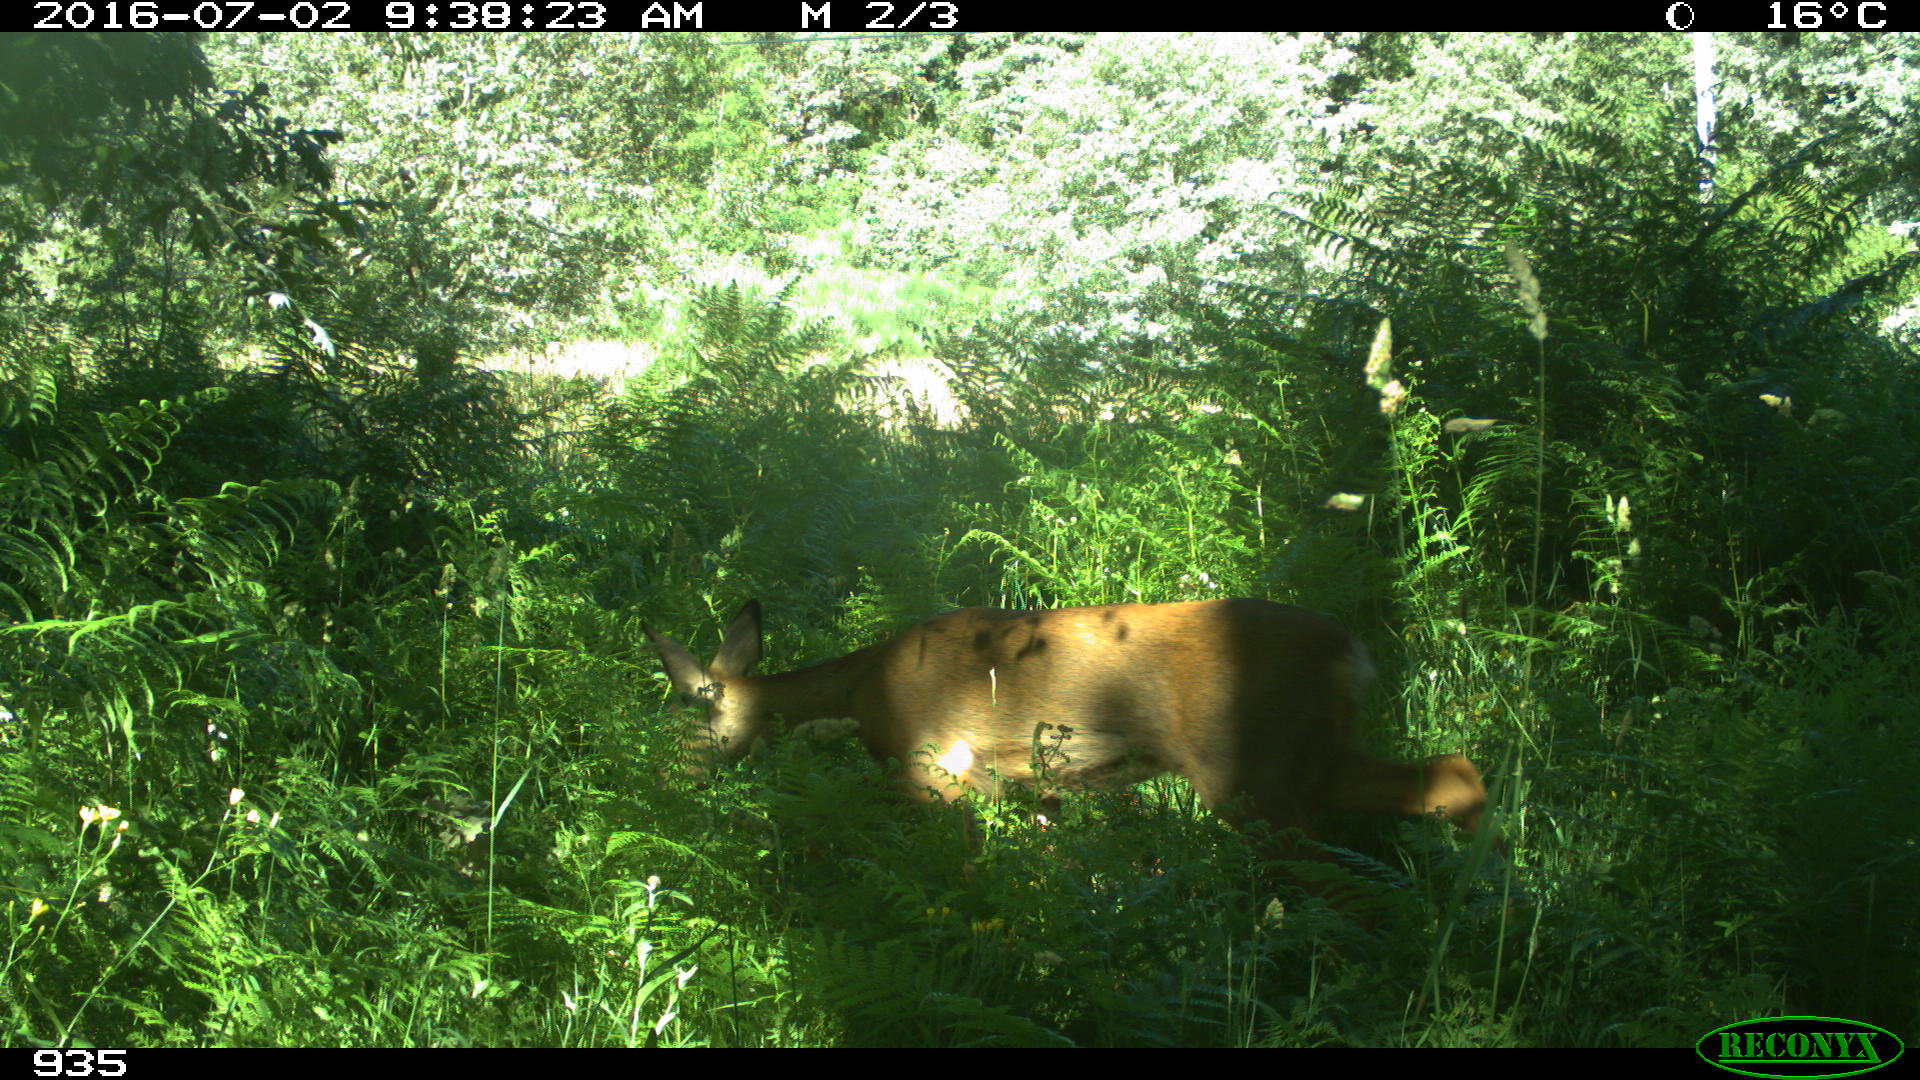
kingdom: Animalia
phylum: Chordata
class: Mammalia
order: Artiodactyla
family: Cervidae
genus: Capreolus
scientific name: Capreolus capreolus
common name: Western roe deer
